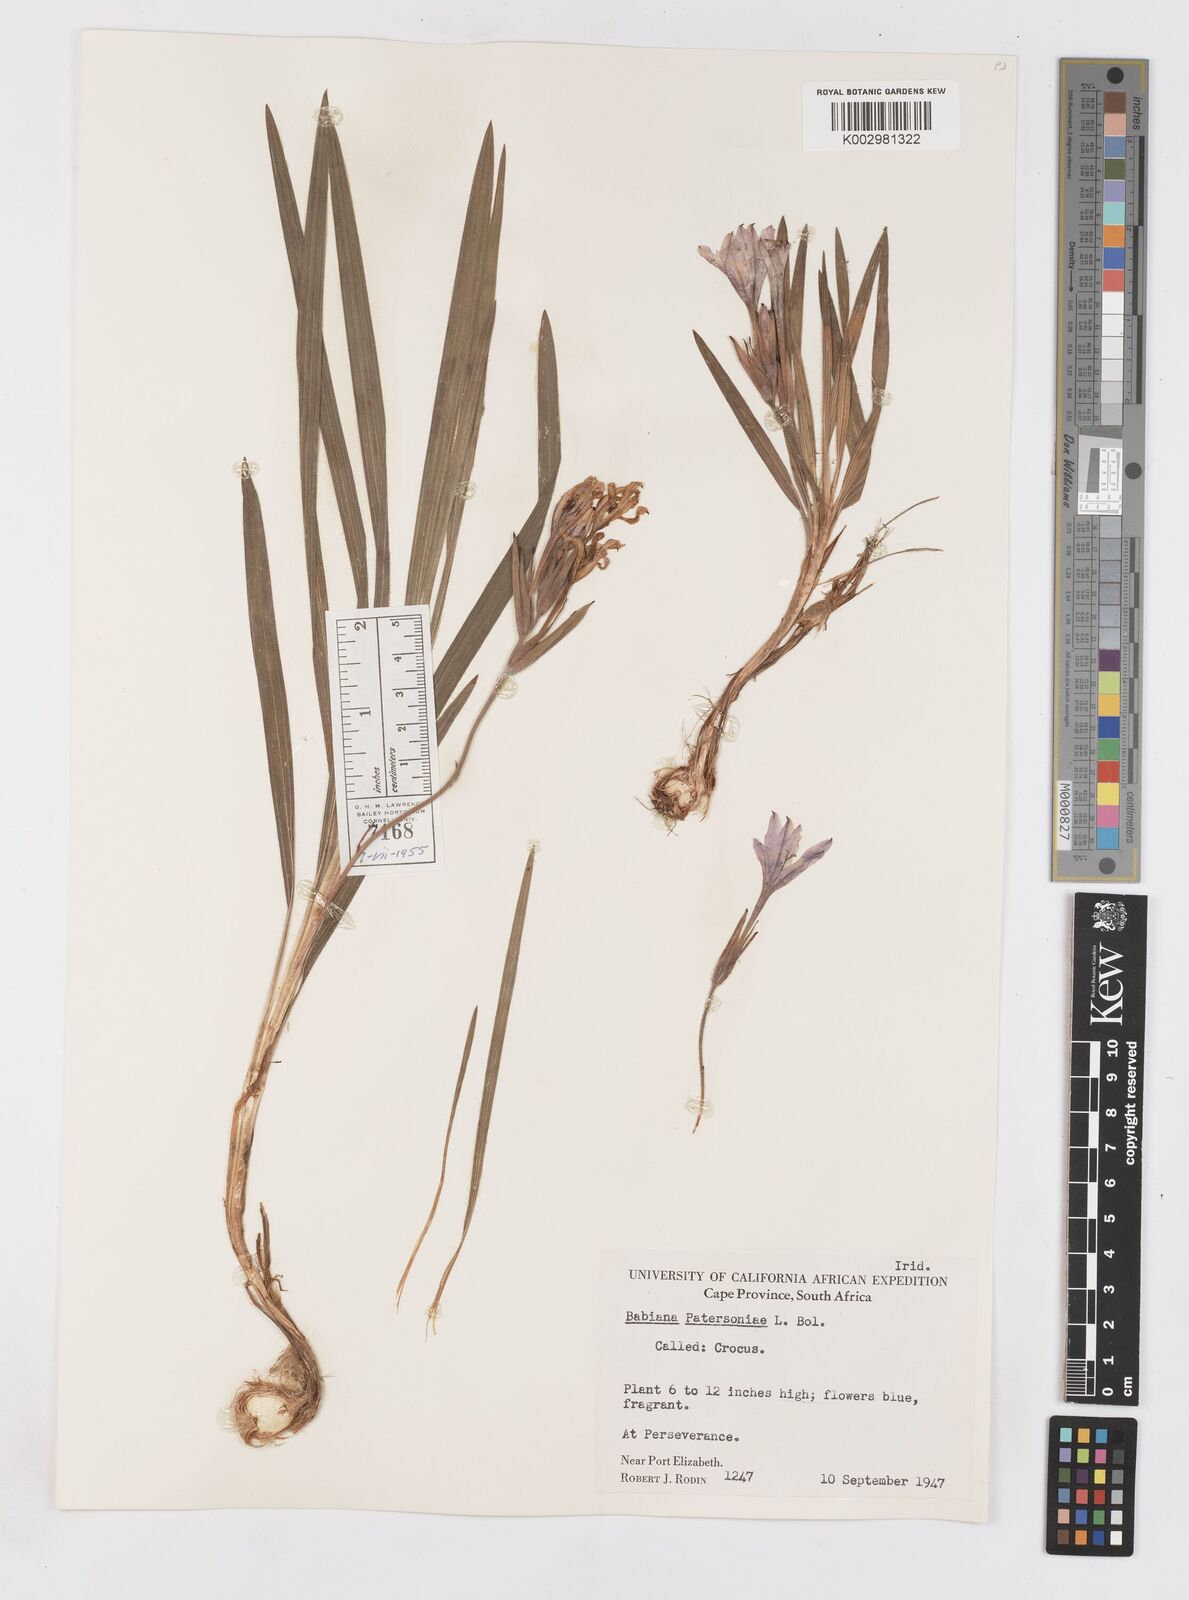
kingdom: Plantae
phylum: Tracheophyta
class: Liliopsida
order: Asparagales
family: Iridaceae
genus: Babiana
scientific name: Babiana patersoniae
